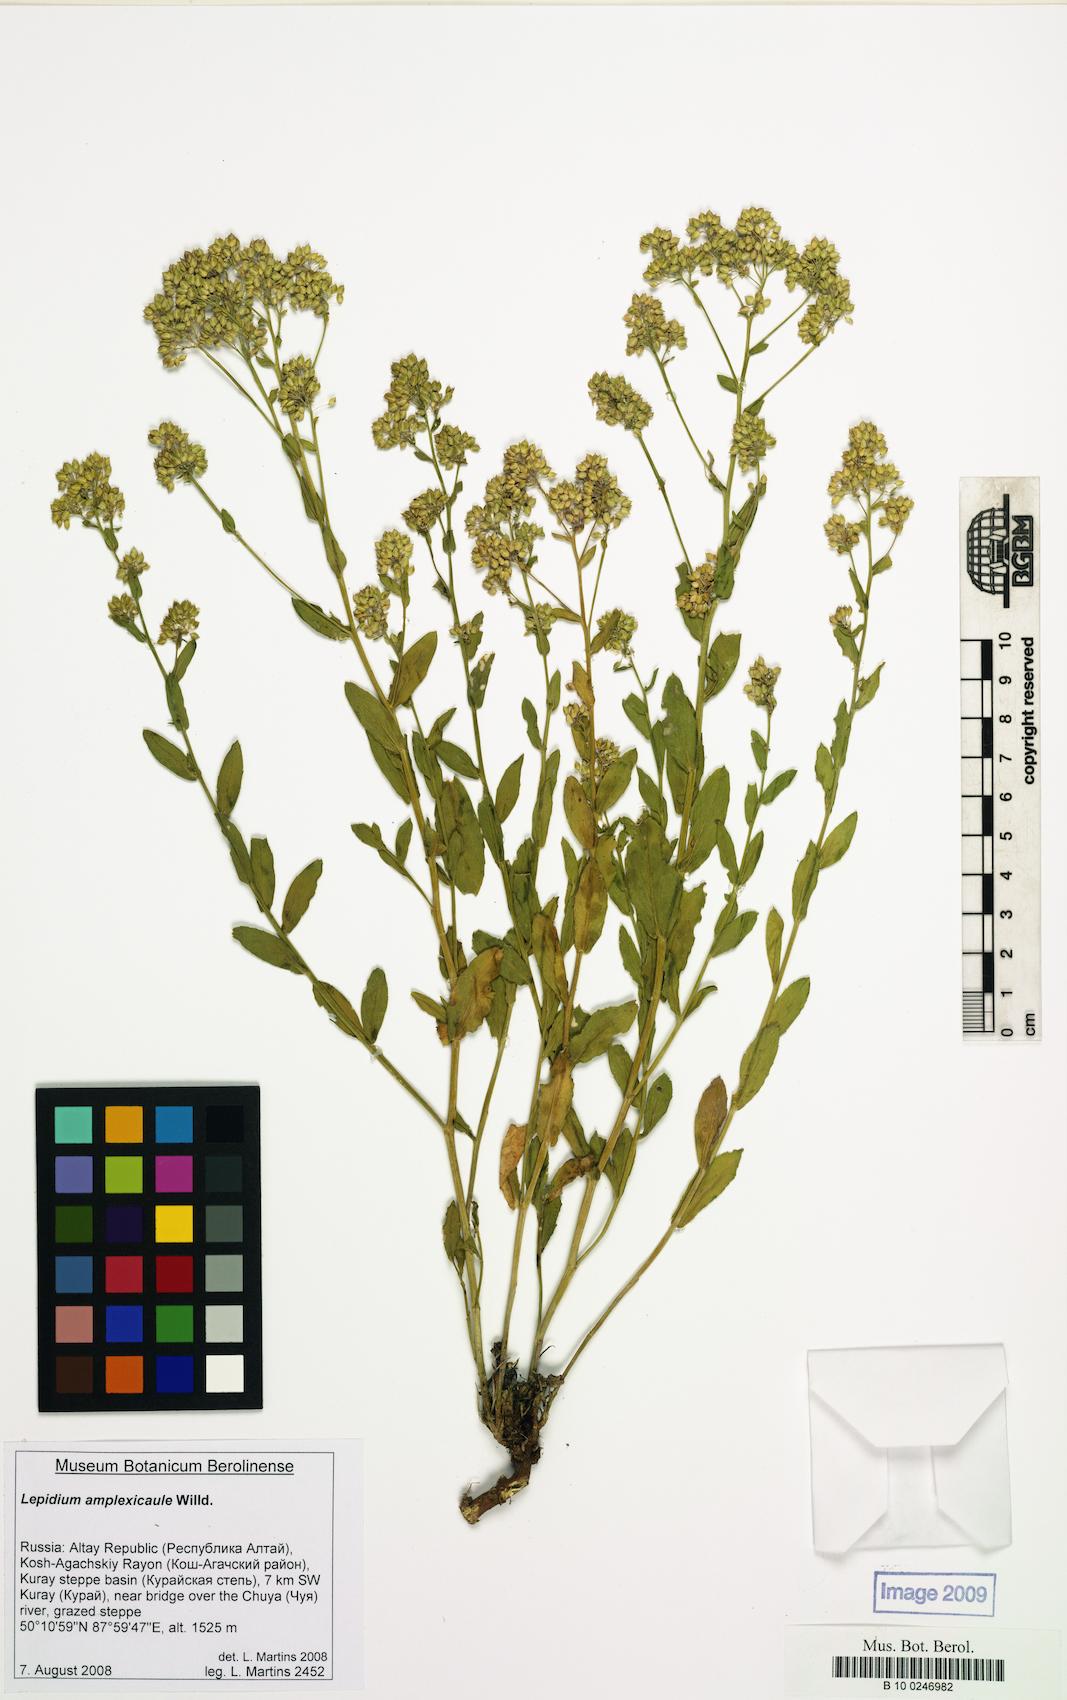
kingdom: Plantae
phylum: Tracheophyta
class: Magnoliopsida
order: Brassicales
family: Brassicaceae
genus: Lepidium
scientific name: Lepidium amplexicaule
